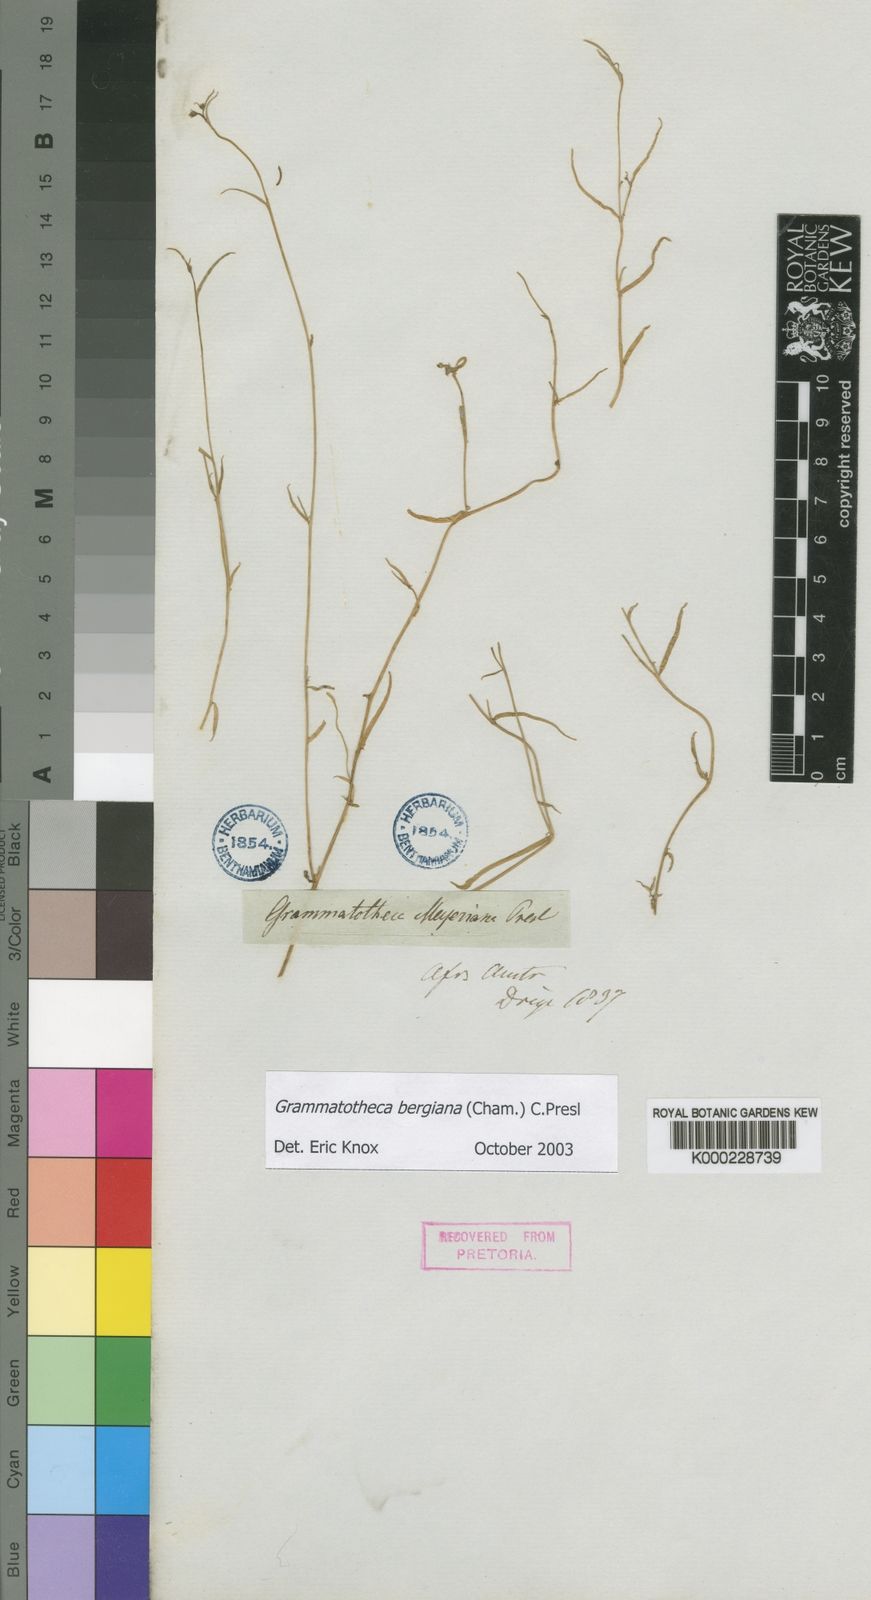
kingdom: Plantae
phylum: Tracheophyta
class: Magnoliopsida
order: Asterales
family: Campanulaceae
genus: Grammatotheca
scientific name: Grammatotheca bergiana
